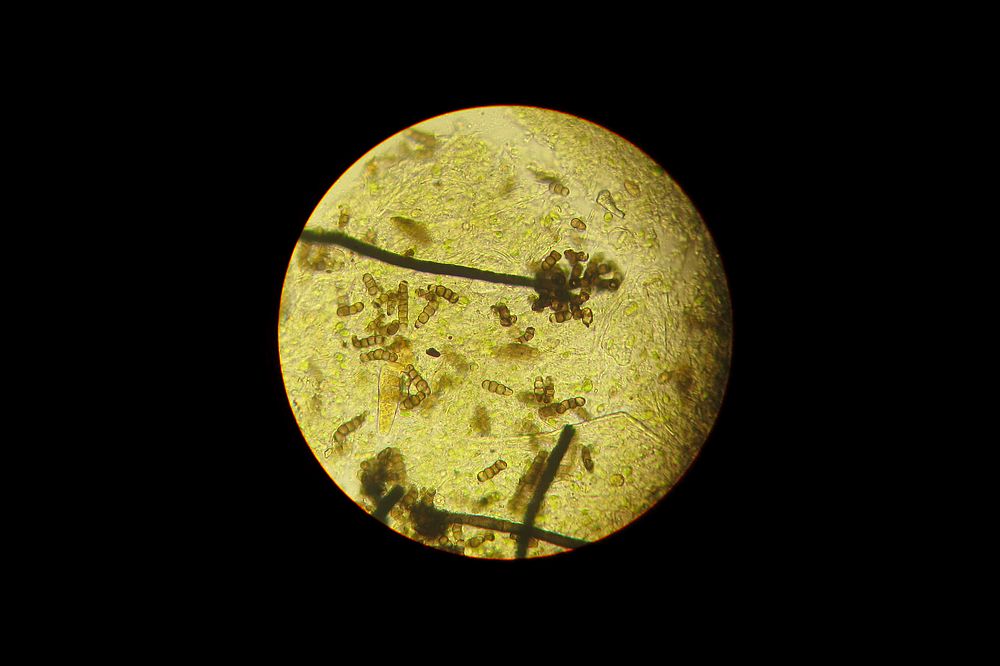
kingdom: Fungi
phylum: Ascomycota
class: Dothideomycetes
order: Pleosporales
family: Torulaceae
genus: Torula
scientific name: Torula herbarum
